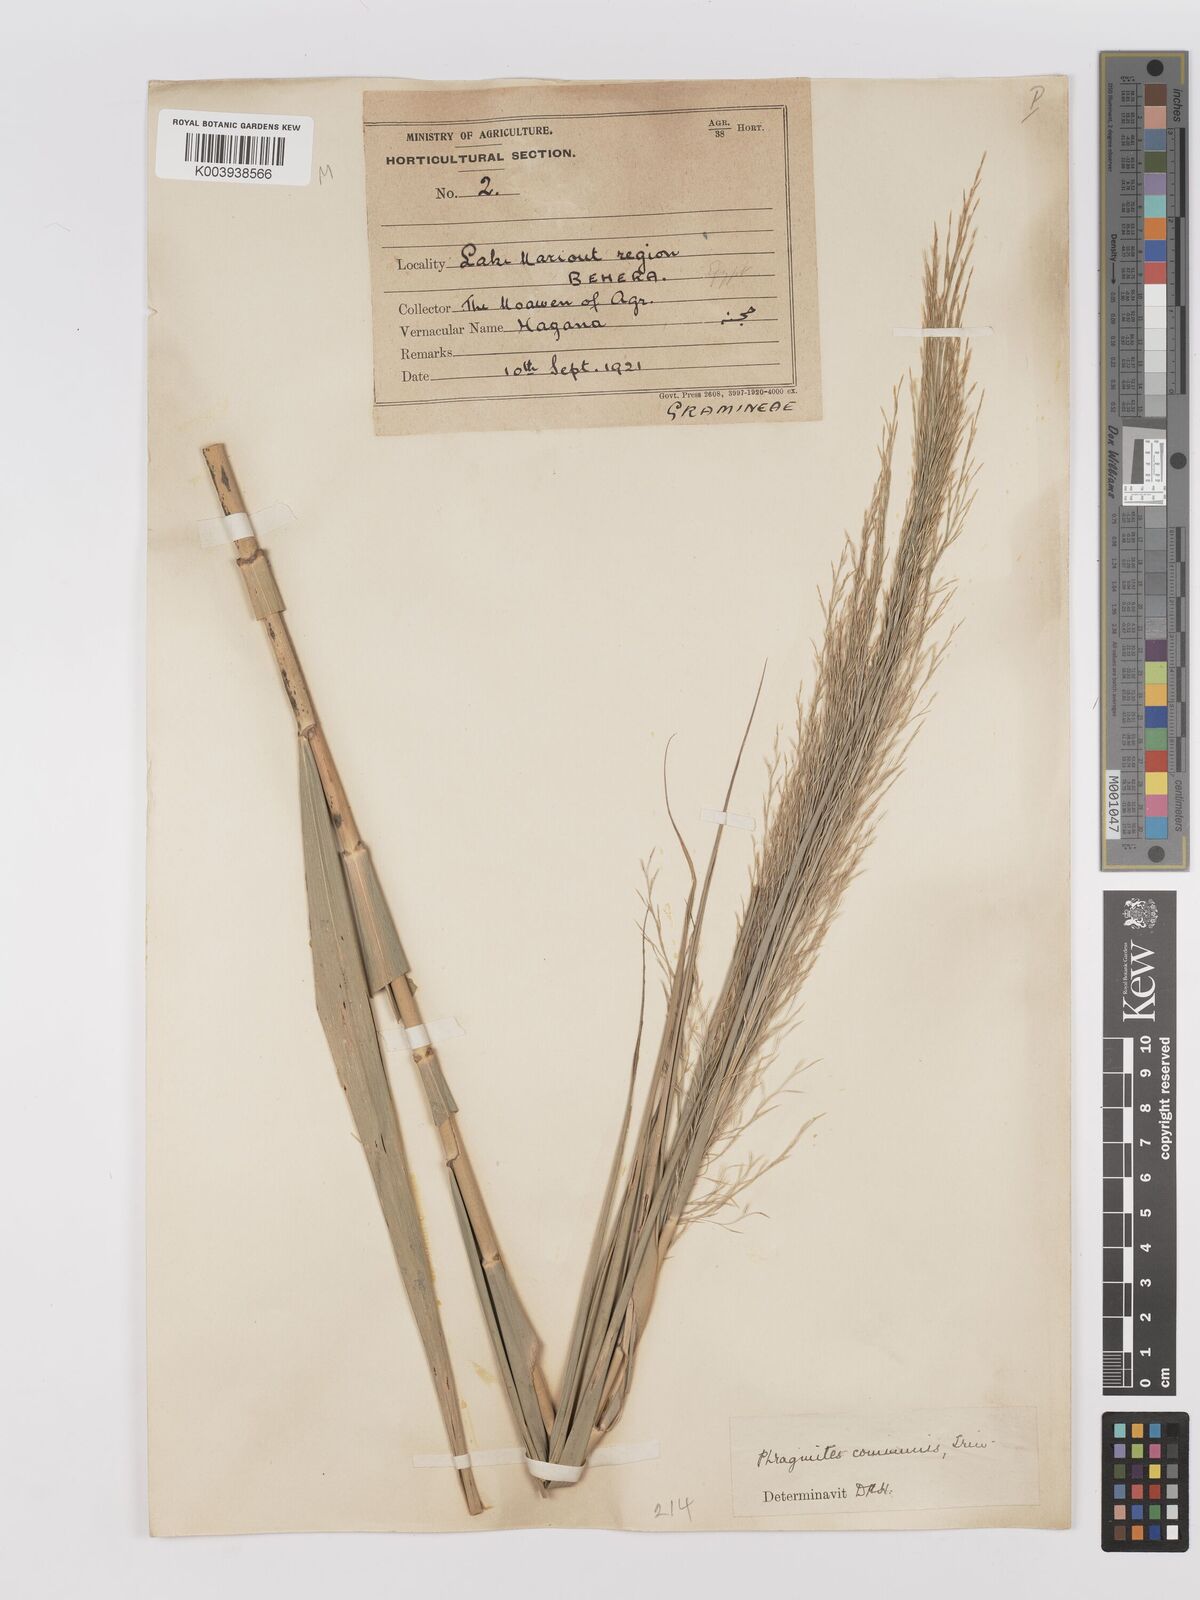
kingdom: Plantae
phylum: Tracheophyta
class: Liliopsida
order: Poales
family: Poaceae
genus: Phragmites
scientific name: Phragmites australis
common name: Common reed
